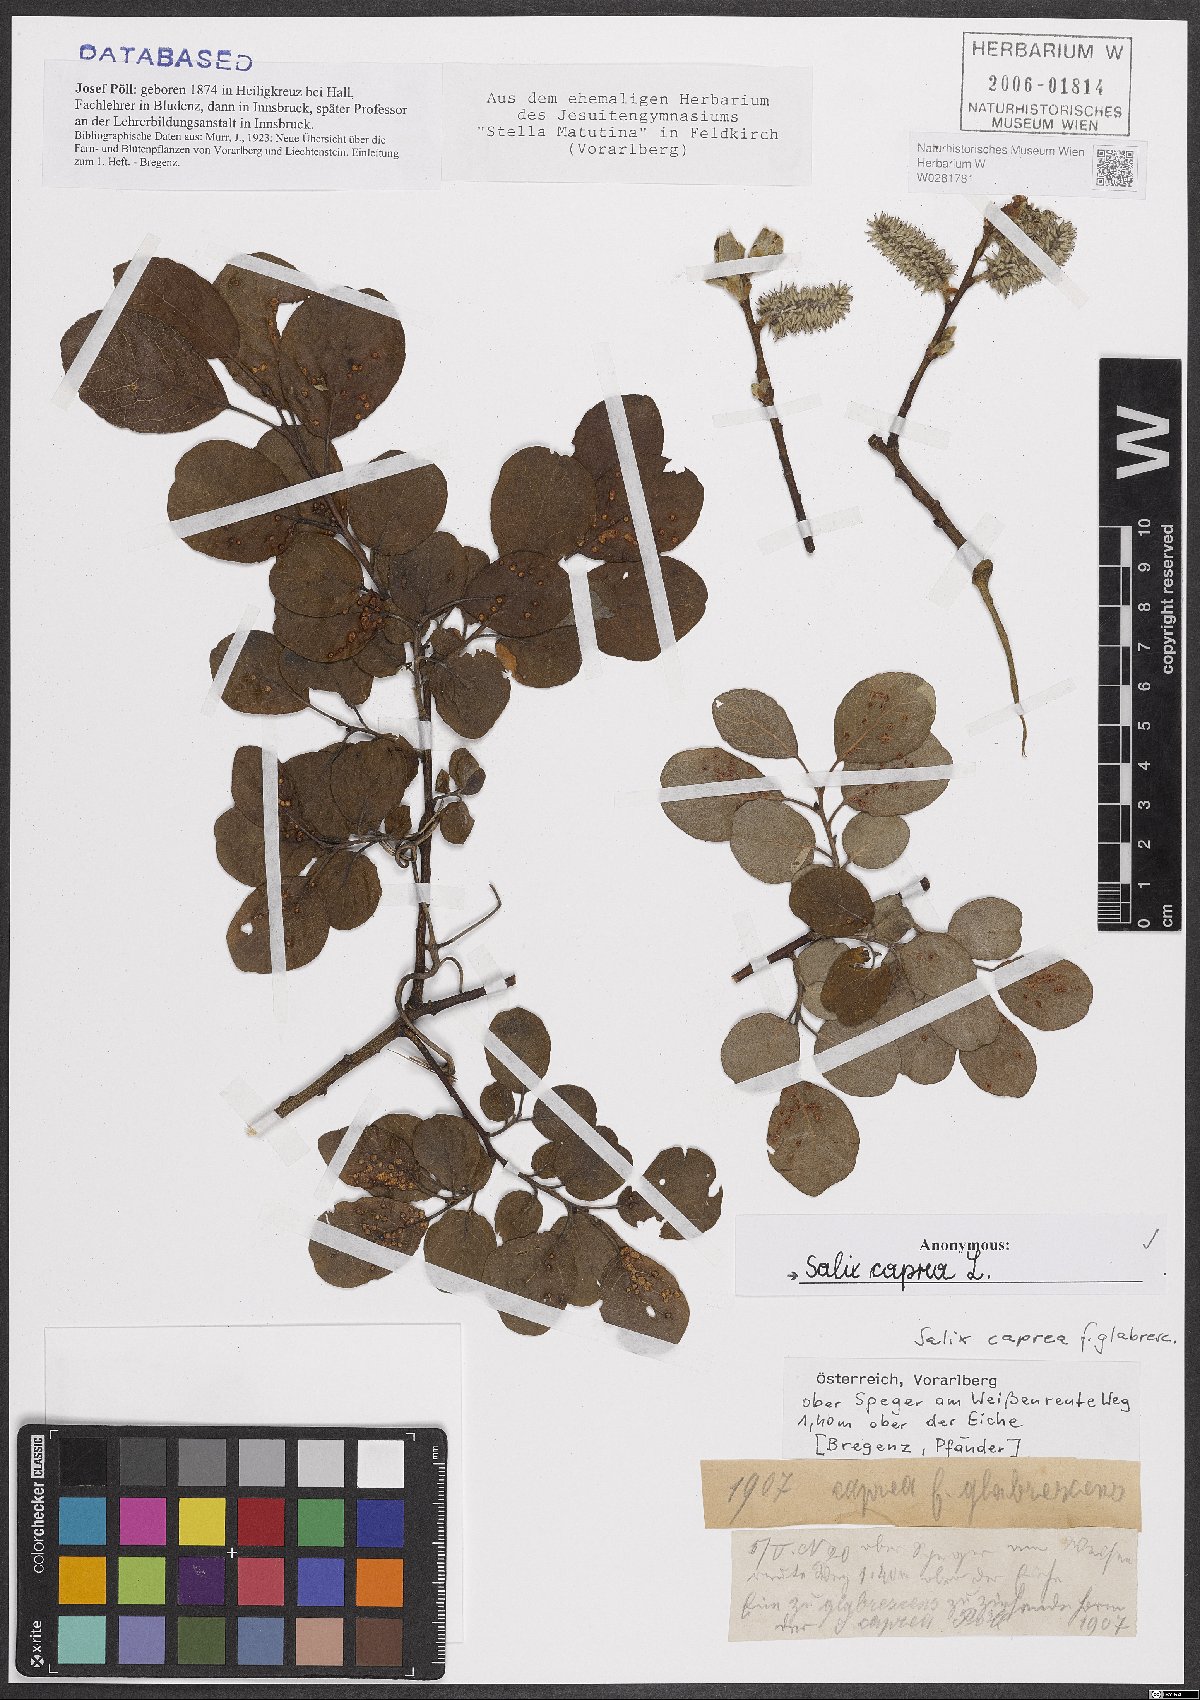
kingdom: Plantae
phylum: Tracheophyta
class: Magnoliopsida
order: Malpighiales
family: Salicaceae
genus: Salix
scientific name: Salix caprea
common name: Goat willow
